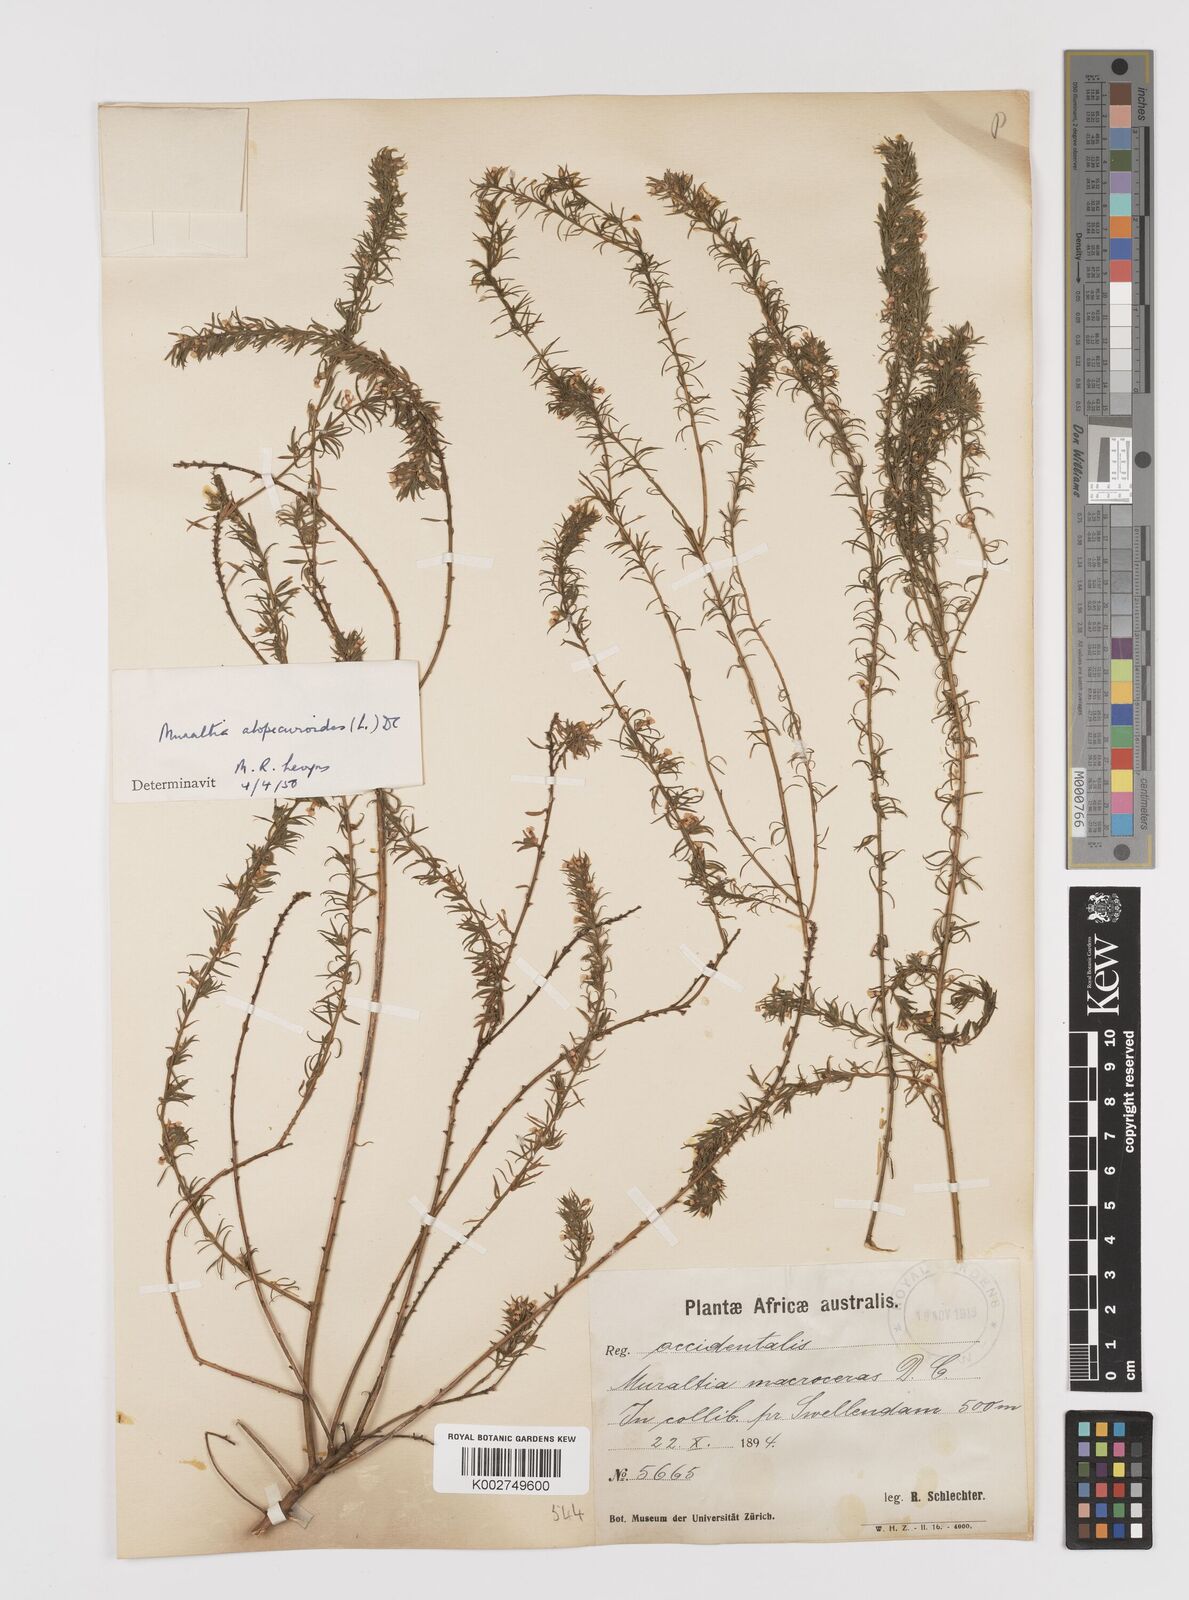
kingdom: Plantae
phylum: Tracheophyta
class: Magnoliopsida
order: Fabales
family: Polygalaceae
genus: Muraltia
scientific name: Muraltia alopecuroides
